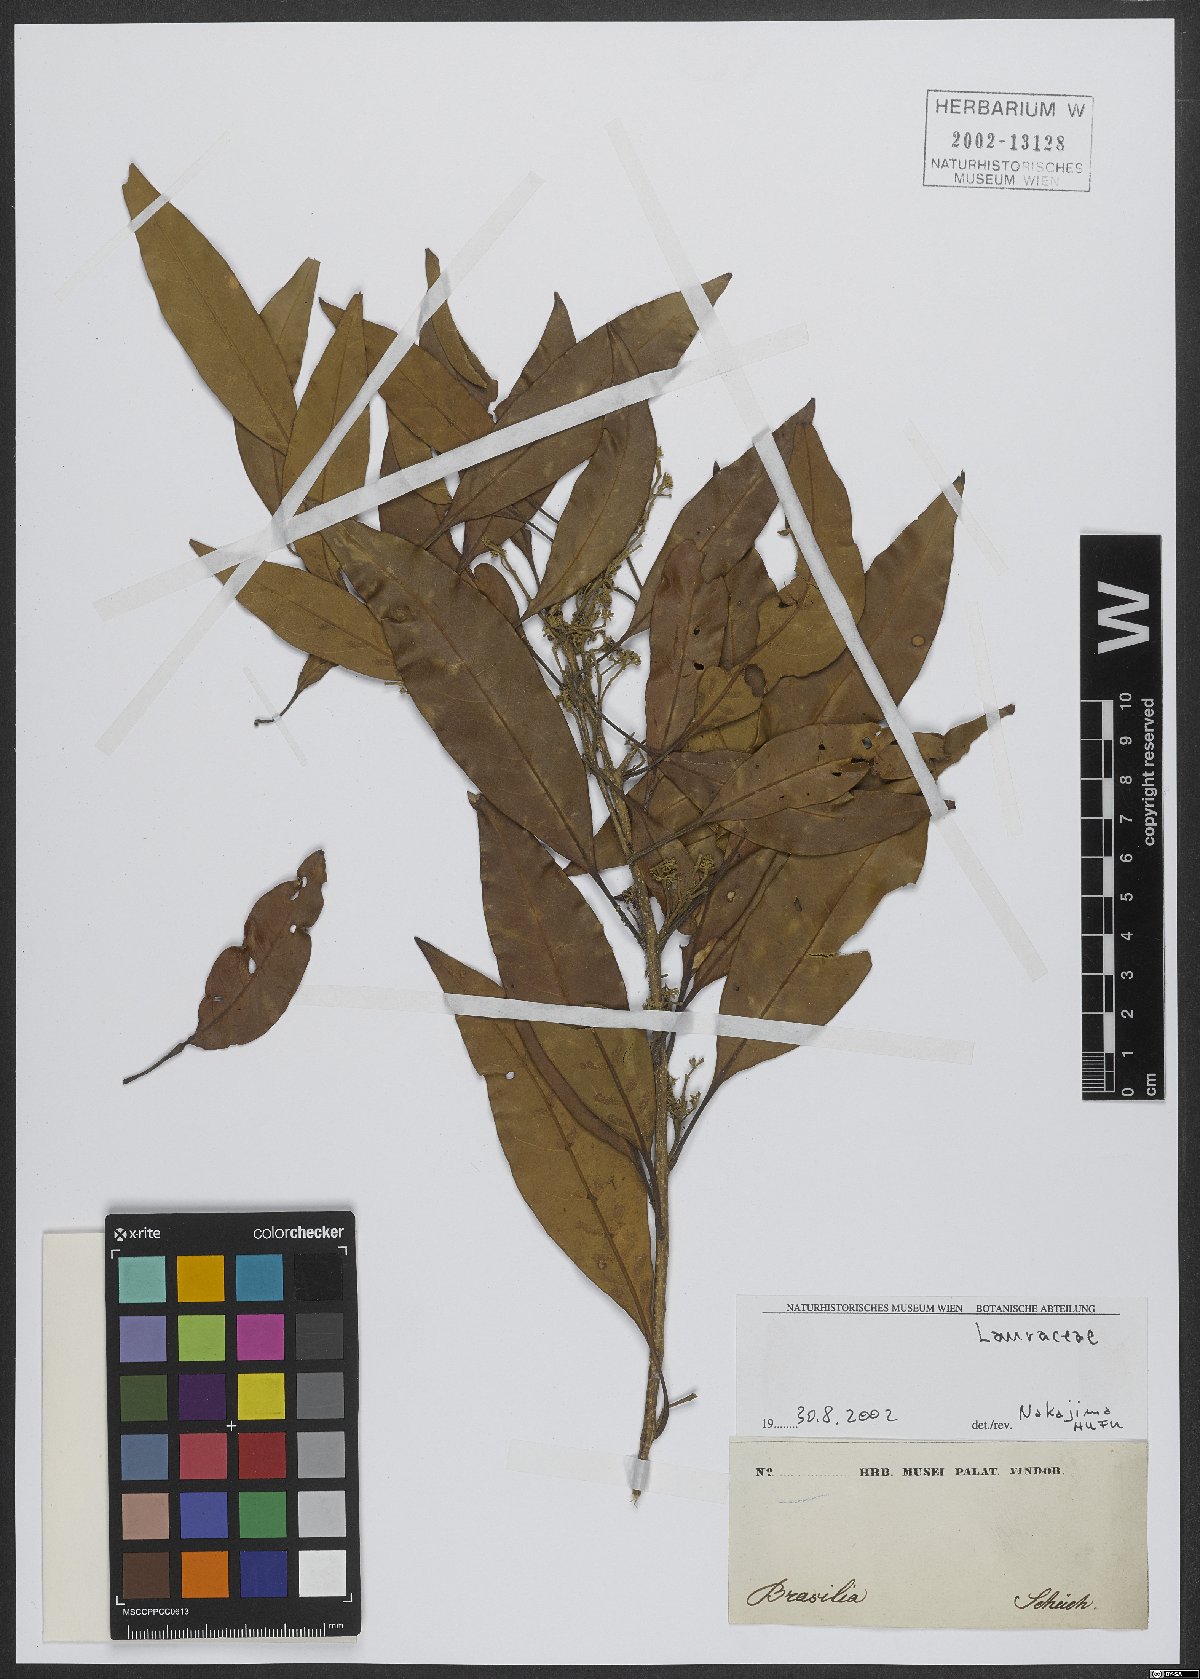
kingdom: Plantae
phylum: Tracheophyta
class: Magnoliopsida
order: Laurales
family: Lauraceae
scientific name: Lauraceae
